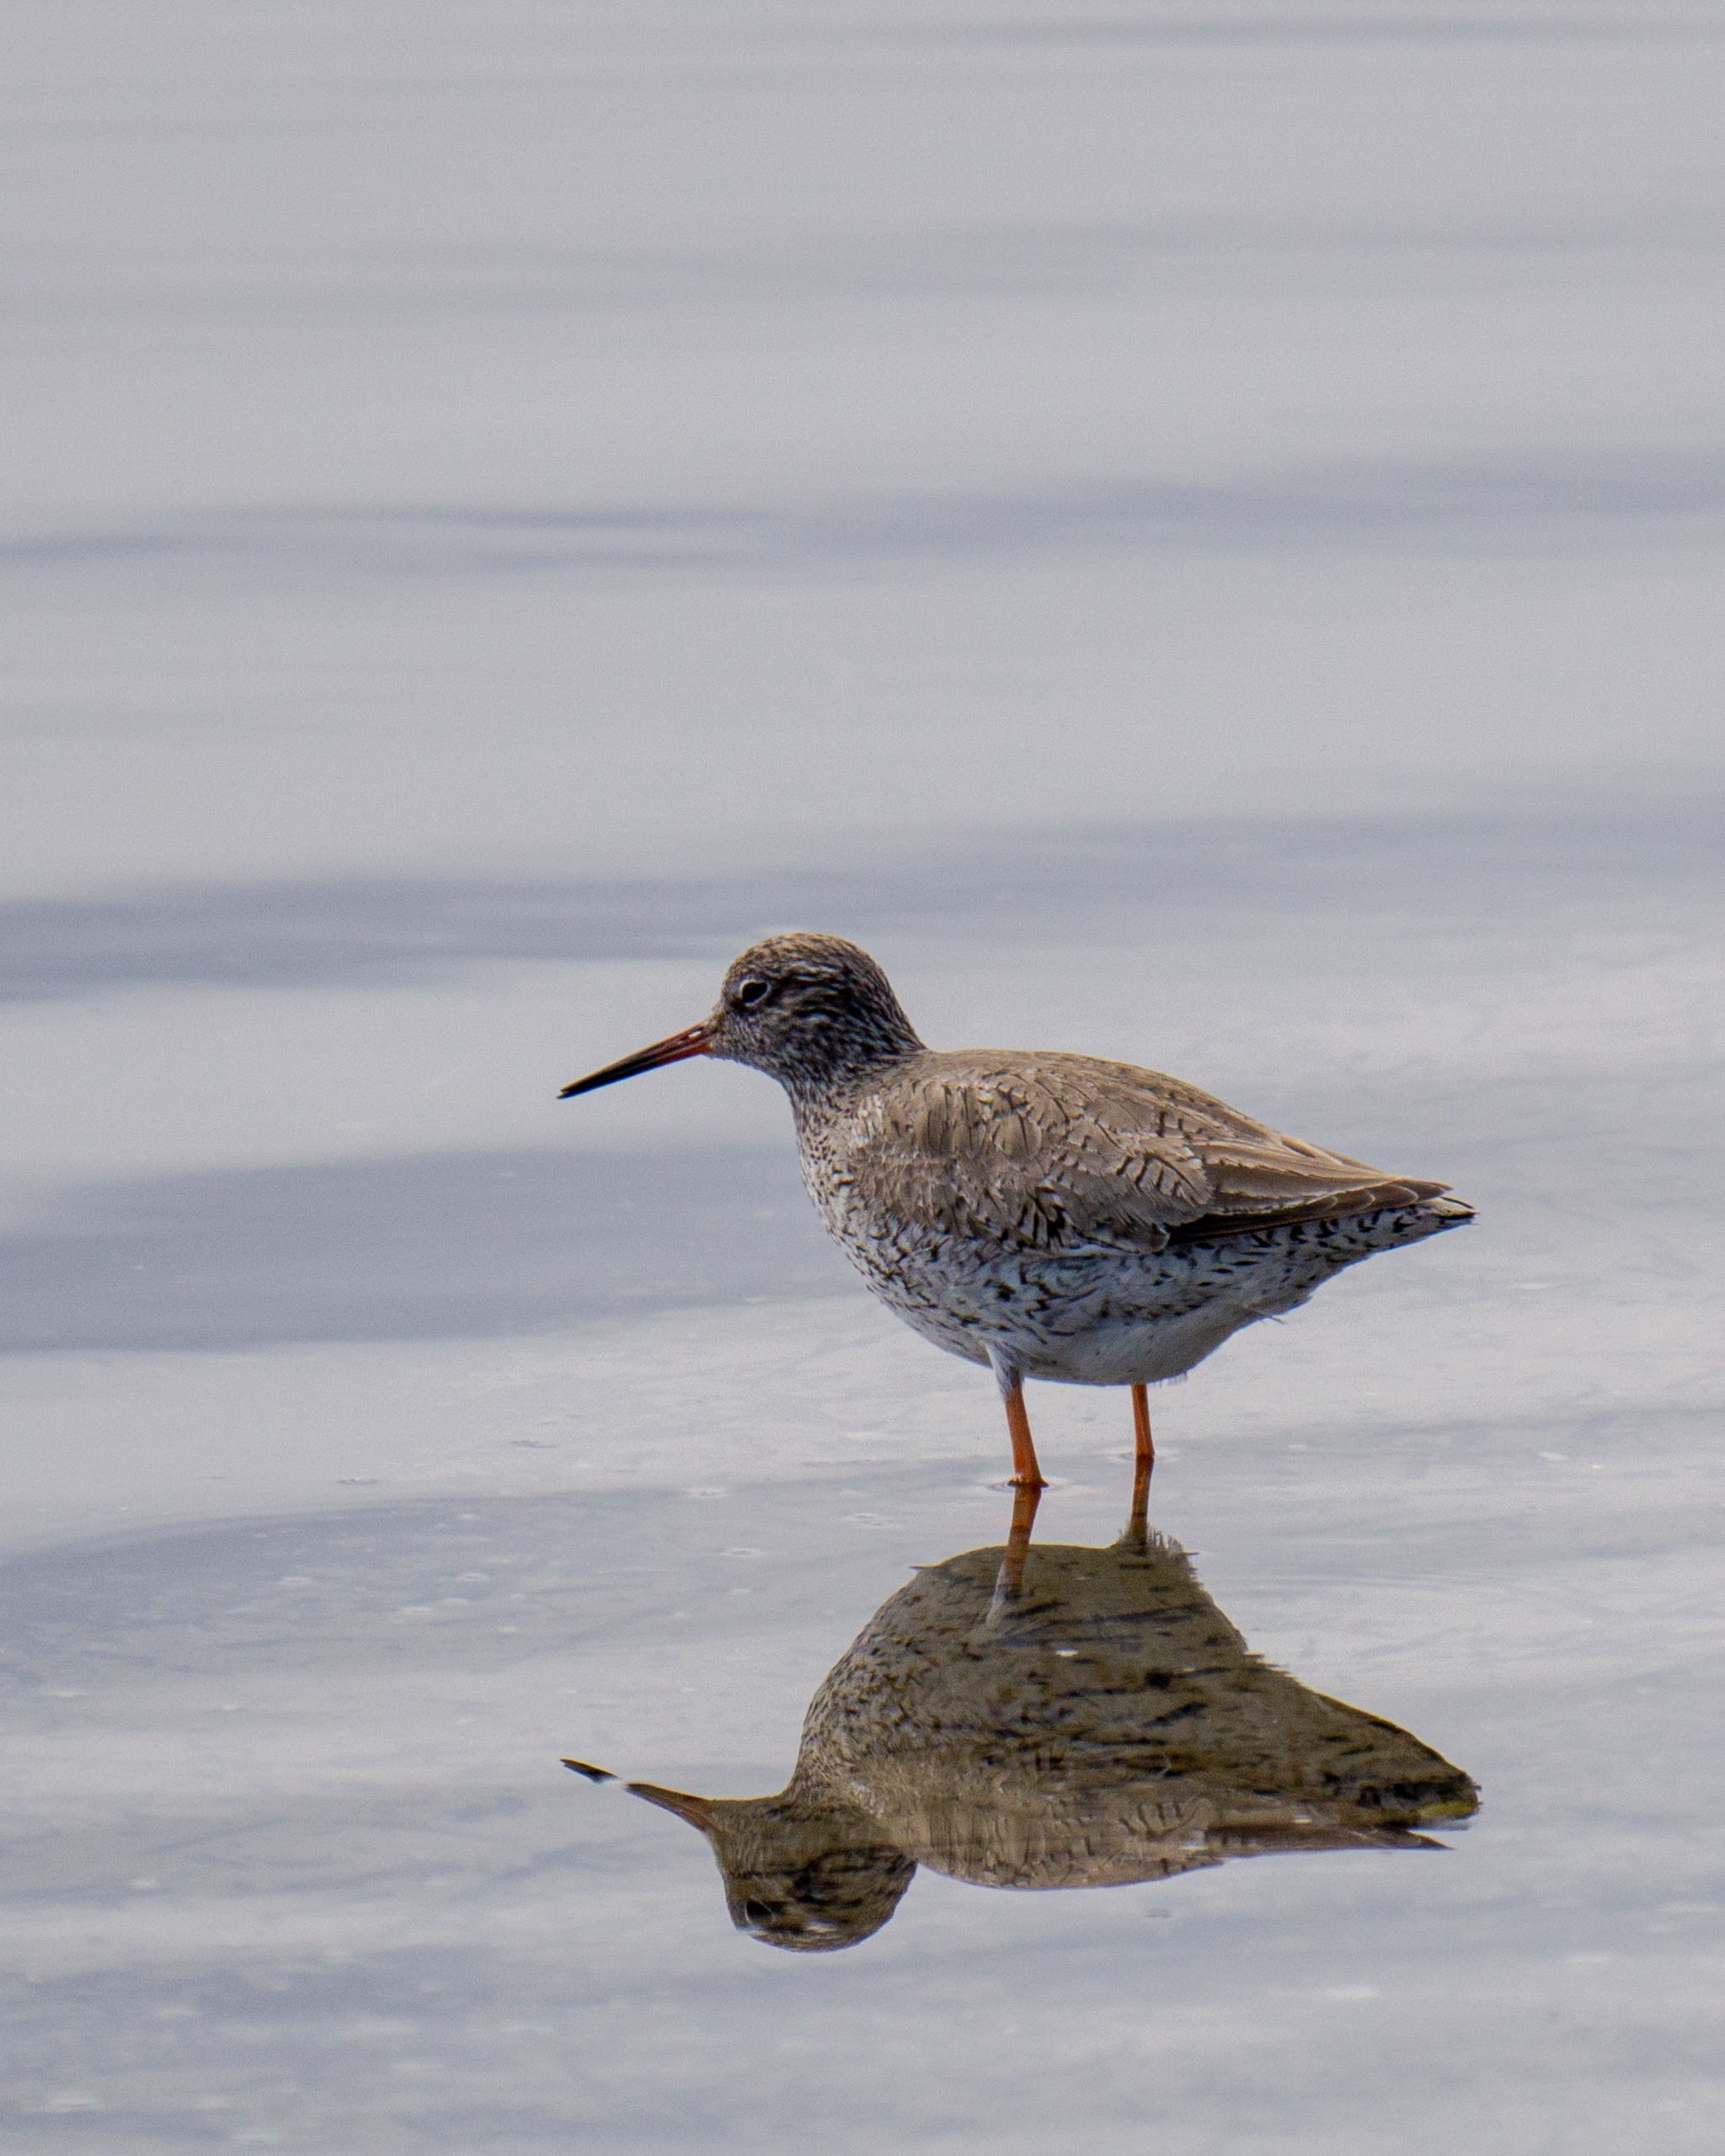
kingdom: Animalia
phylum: Chordata
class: Aves
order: Charadriiformes
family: Scolopacidae
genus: Tringa
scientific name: Tringa totanus
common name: Rødben
